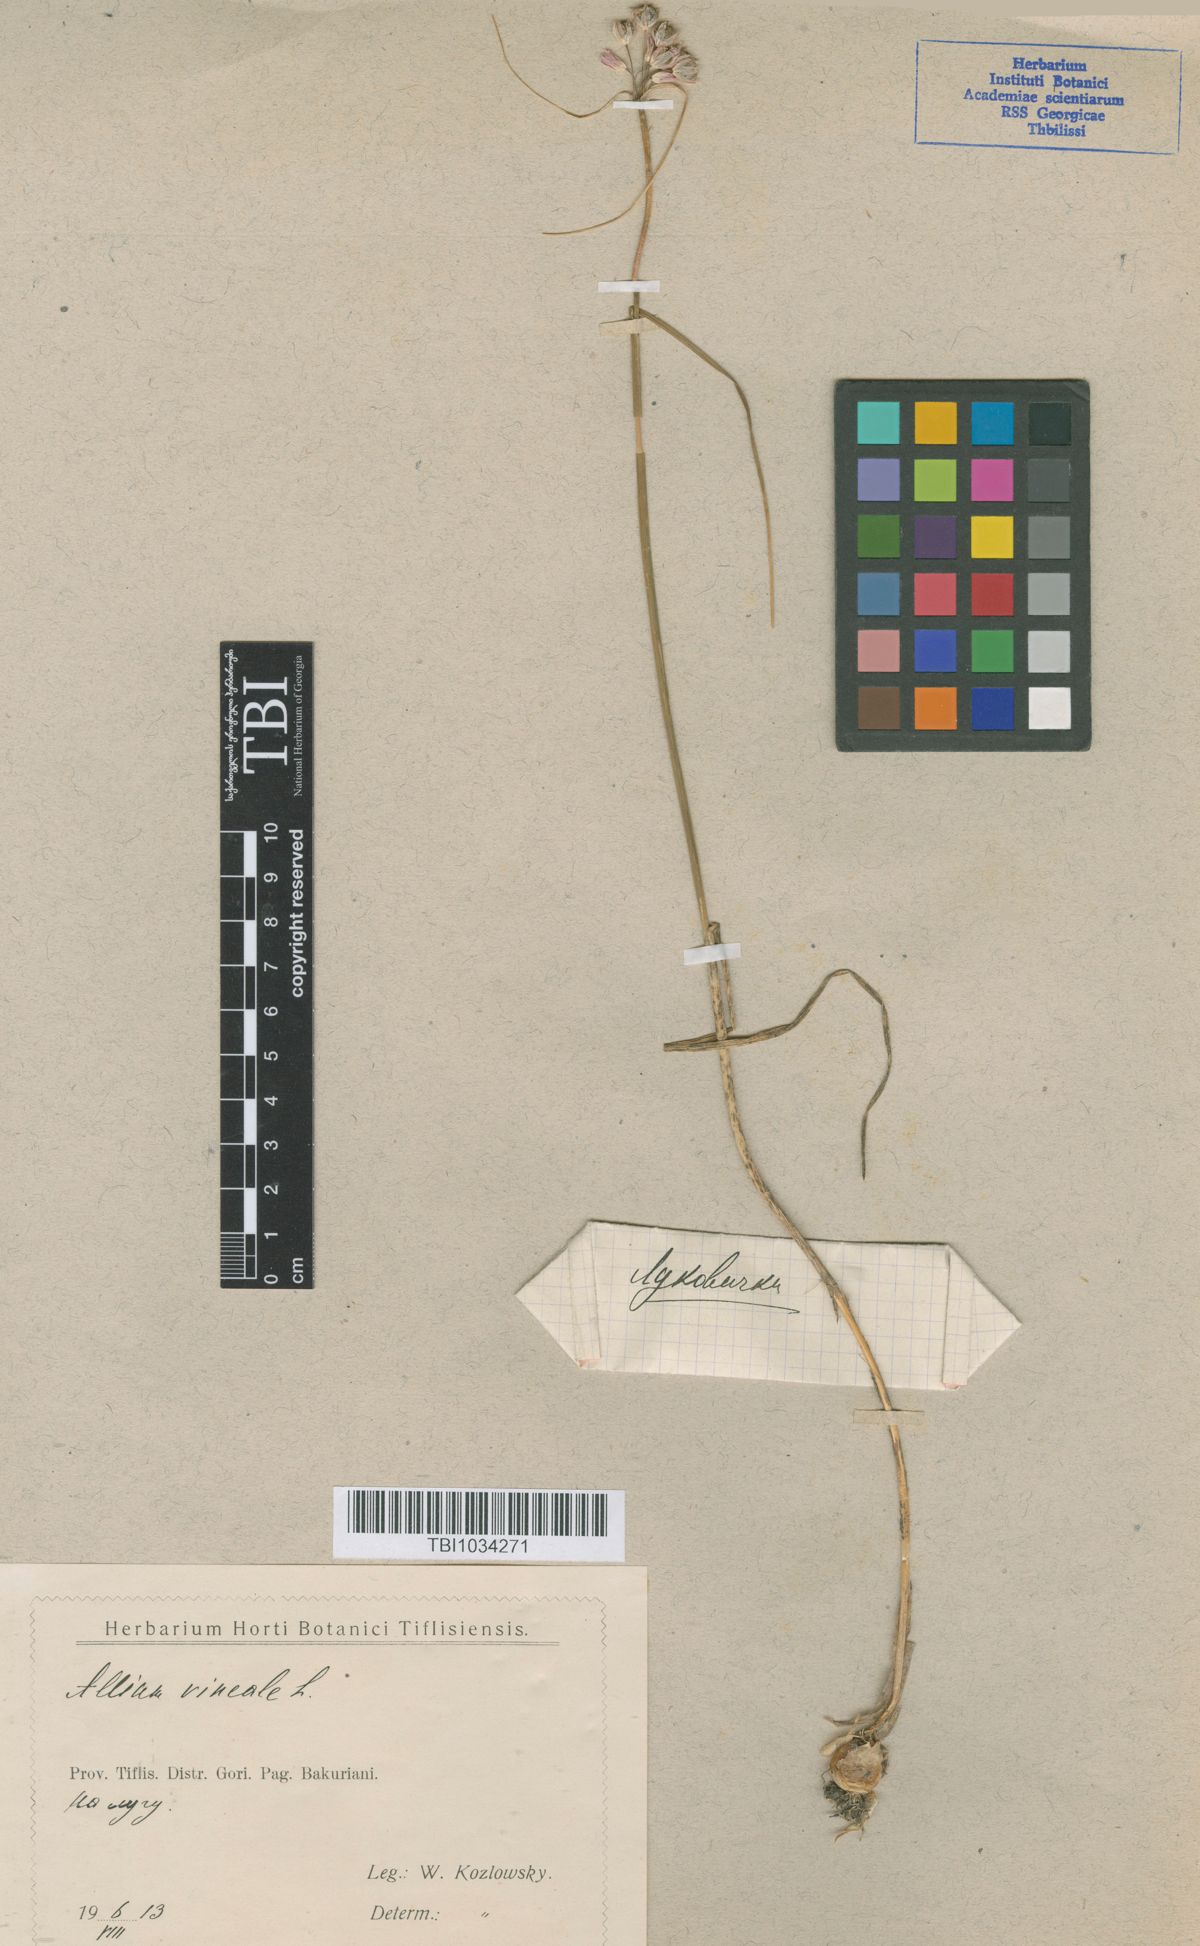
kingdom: Plantae
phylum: Tracheophyta
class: Liliopsida
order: Asparagales
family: Amaryllidaceae
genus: Allium
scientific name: Allium vineale
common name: Crow garlic
